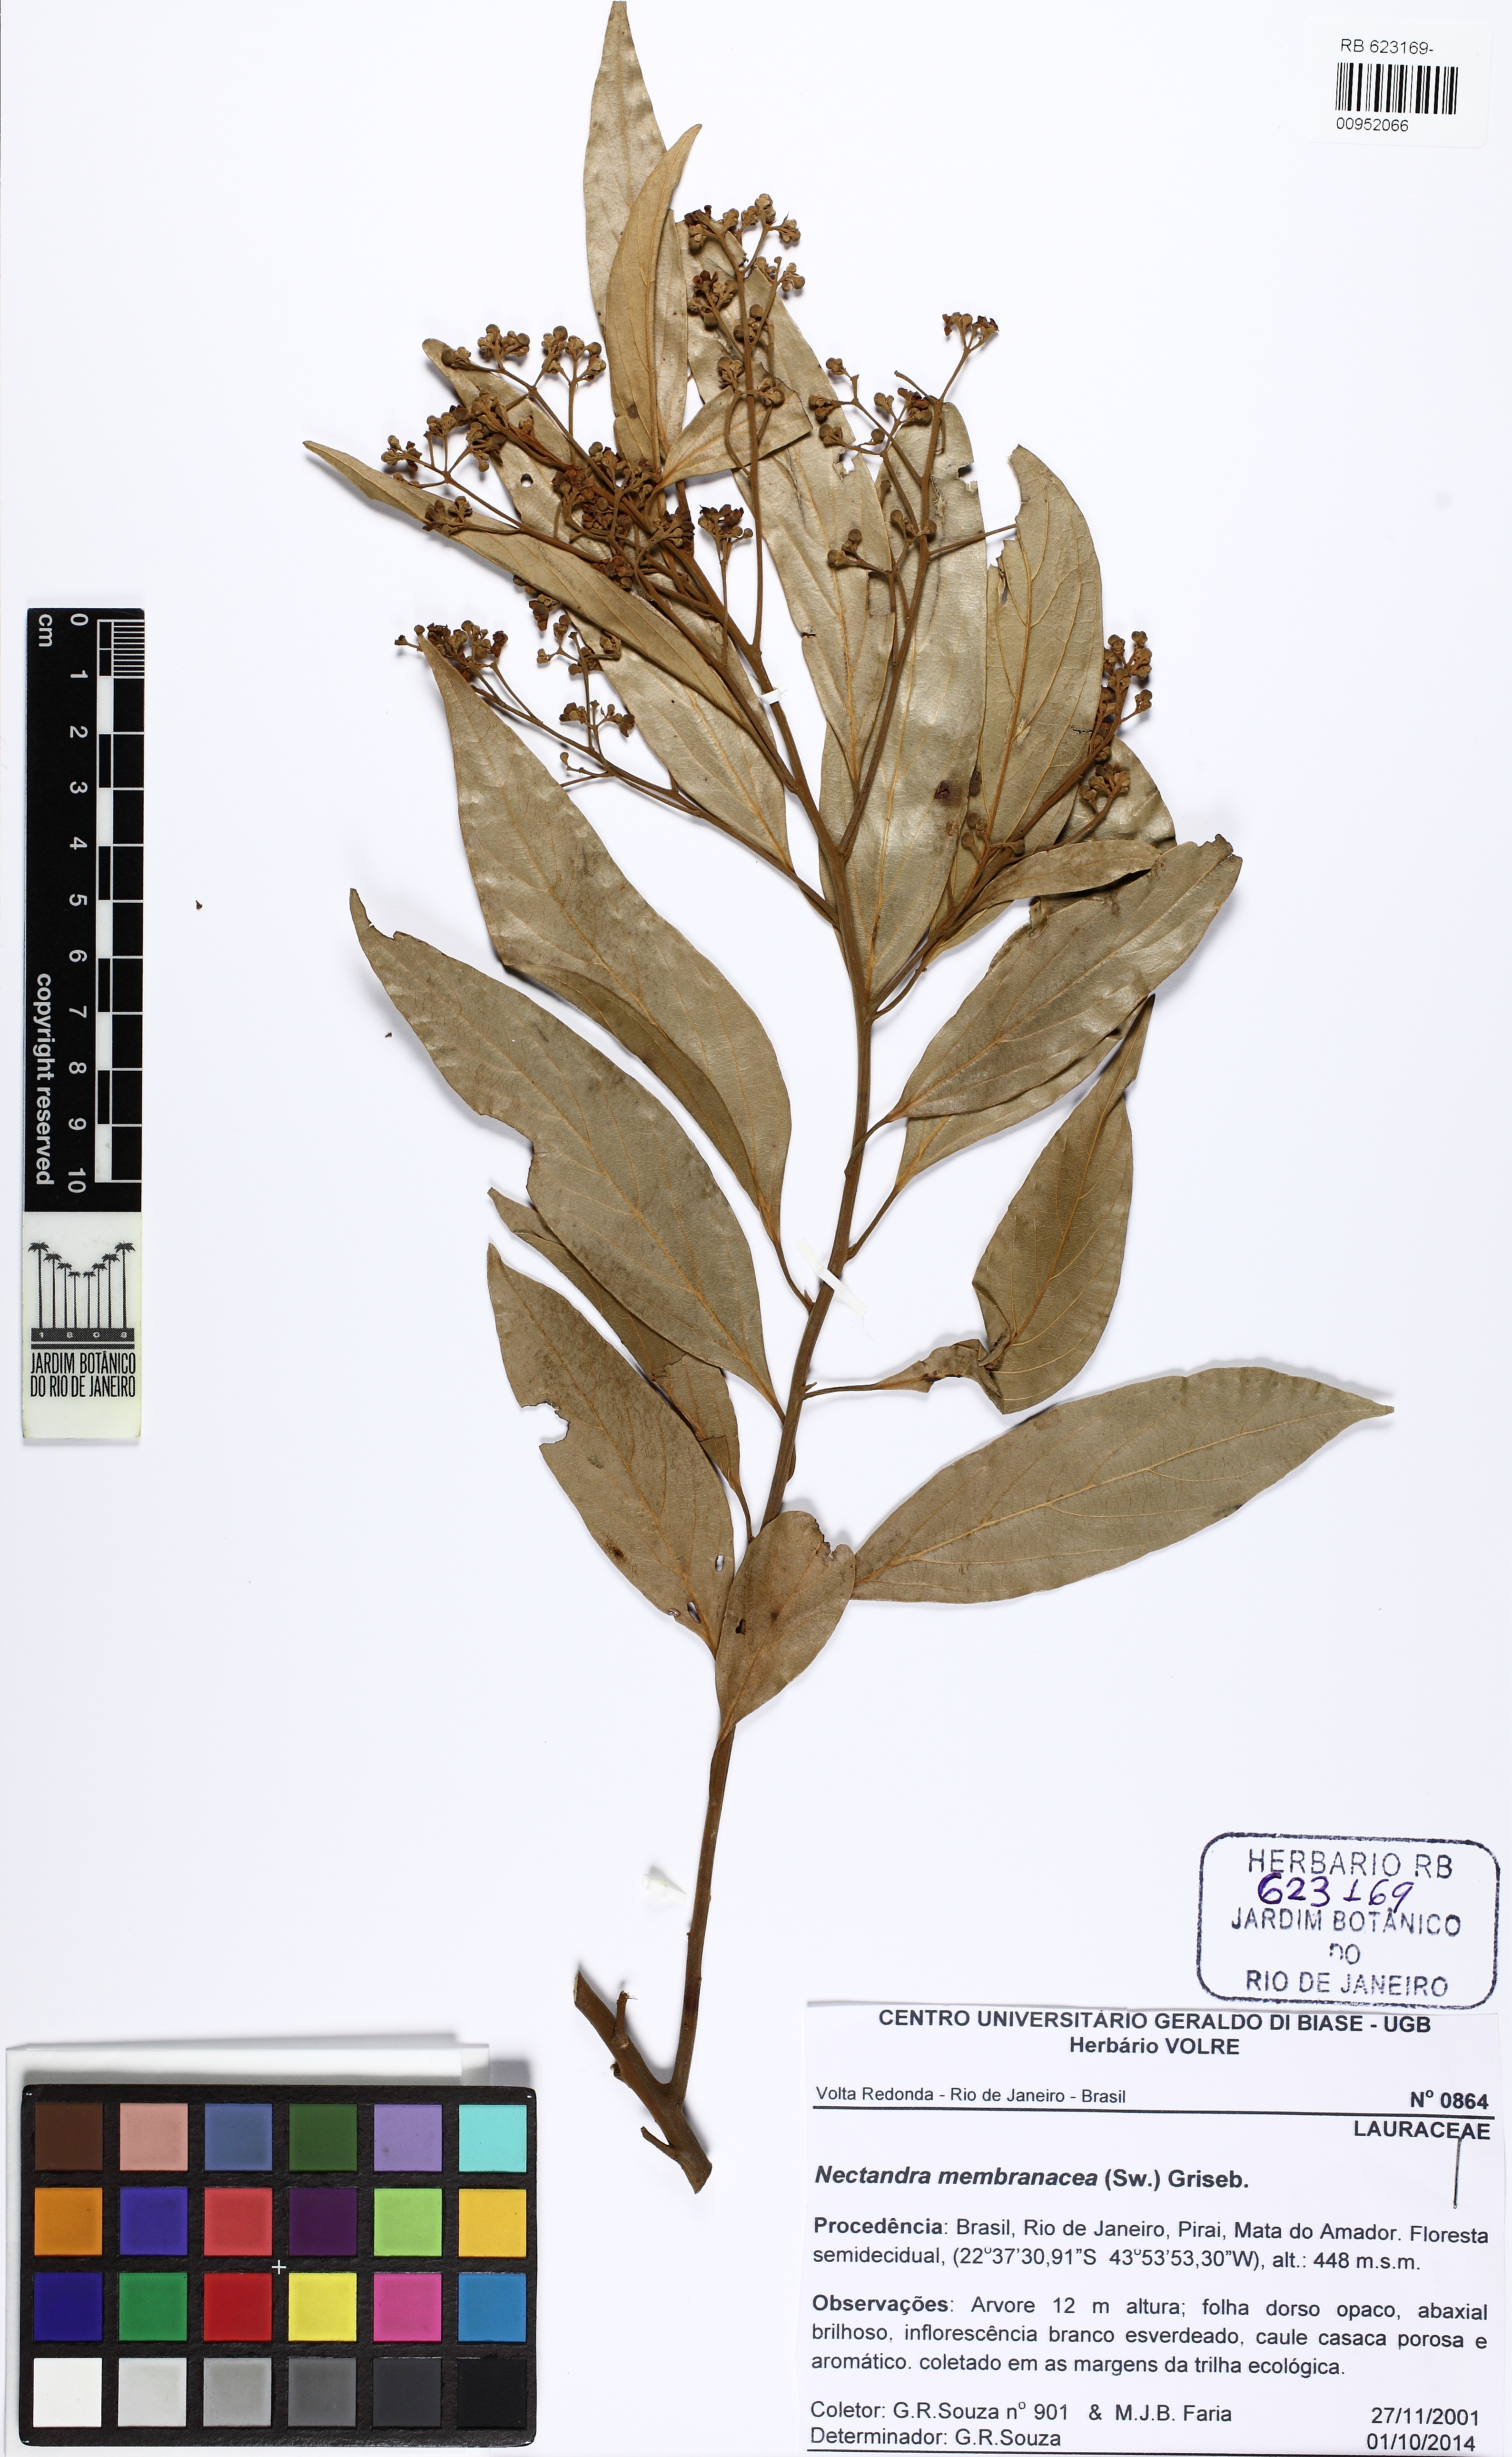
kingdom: Plantae
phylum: Tracheophyta
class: Magnoliopsida
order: Laurales
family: Lauraceae
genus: Nectandra
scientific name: Nectandra membranacea
